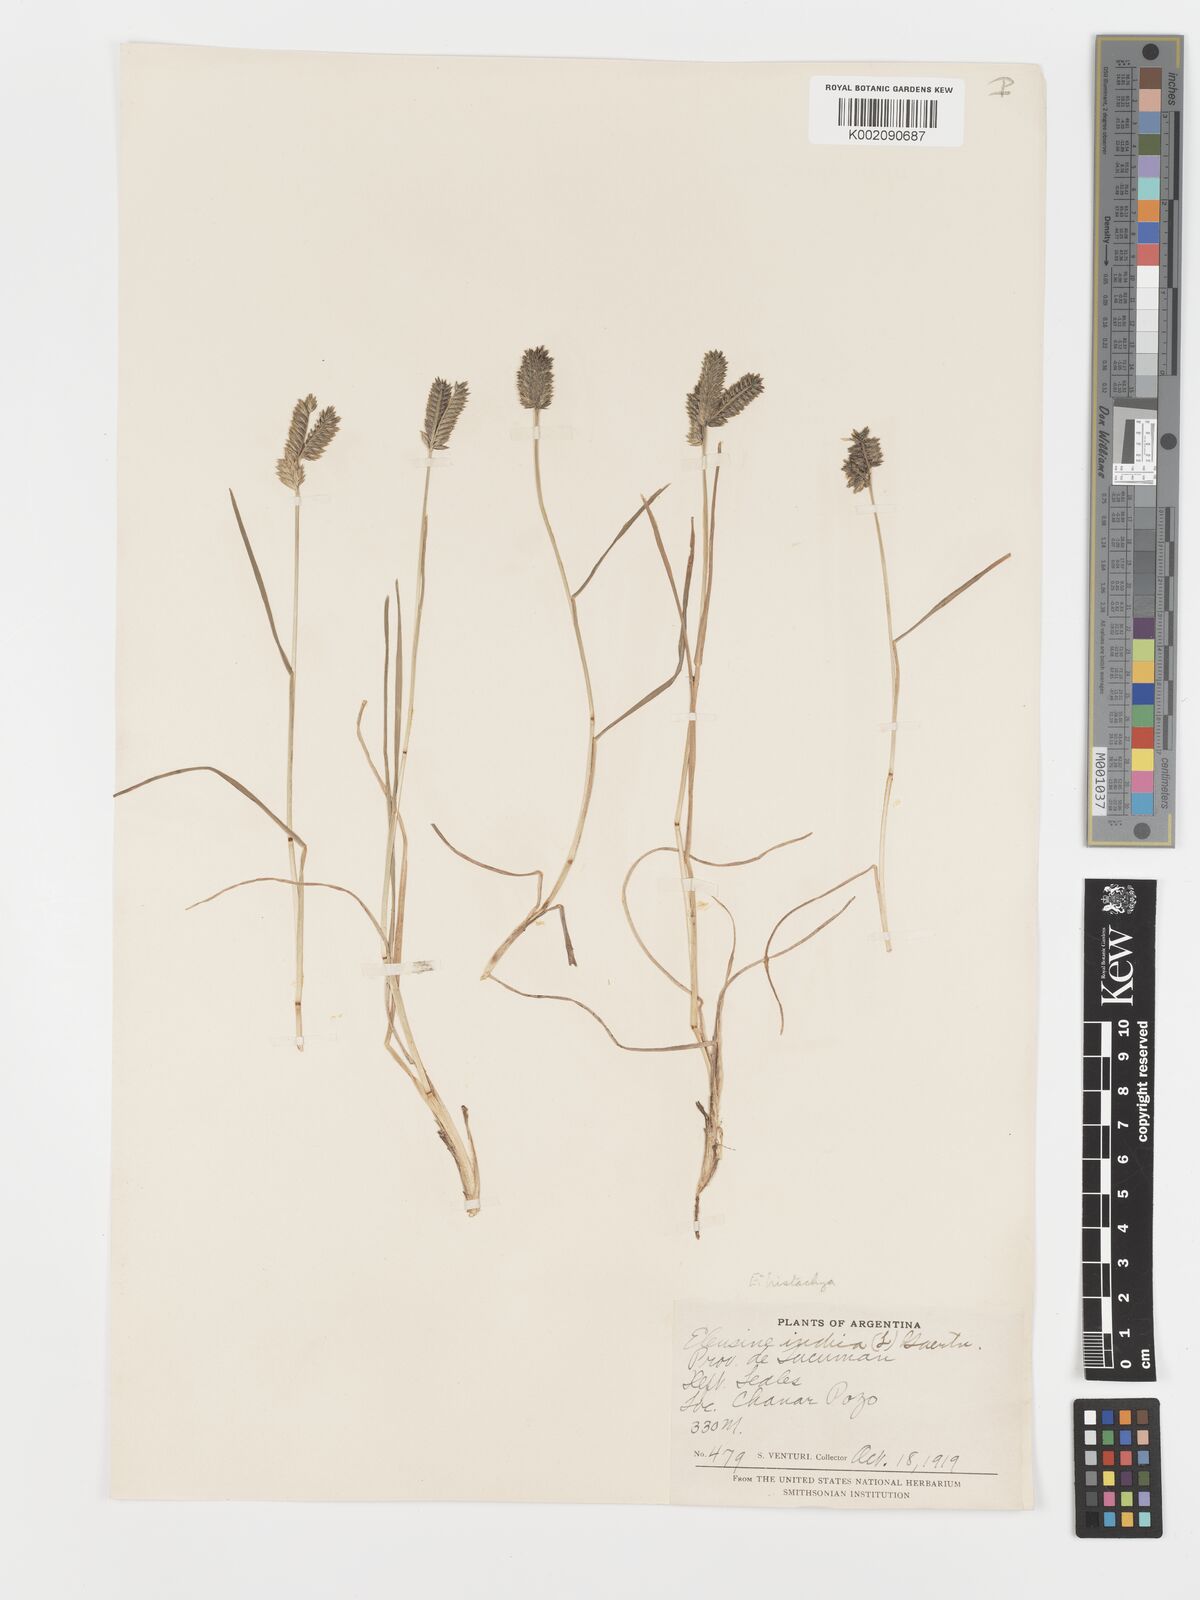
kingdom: Plantae
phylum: Tracheophyta
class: Liliopsida
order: Poales
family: Poaceae
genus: Eleusine
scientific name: Eleusine tristachya
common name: American yard-grass
